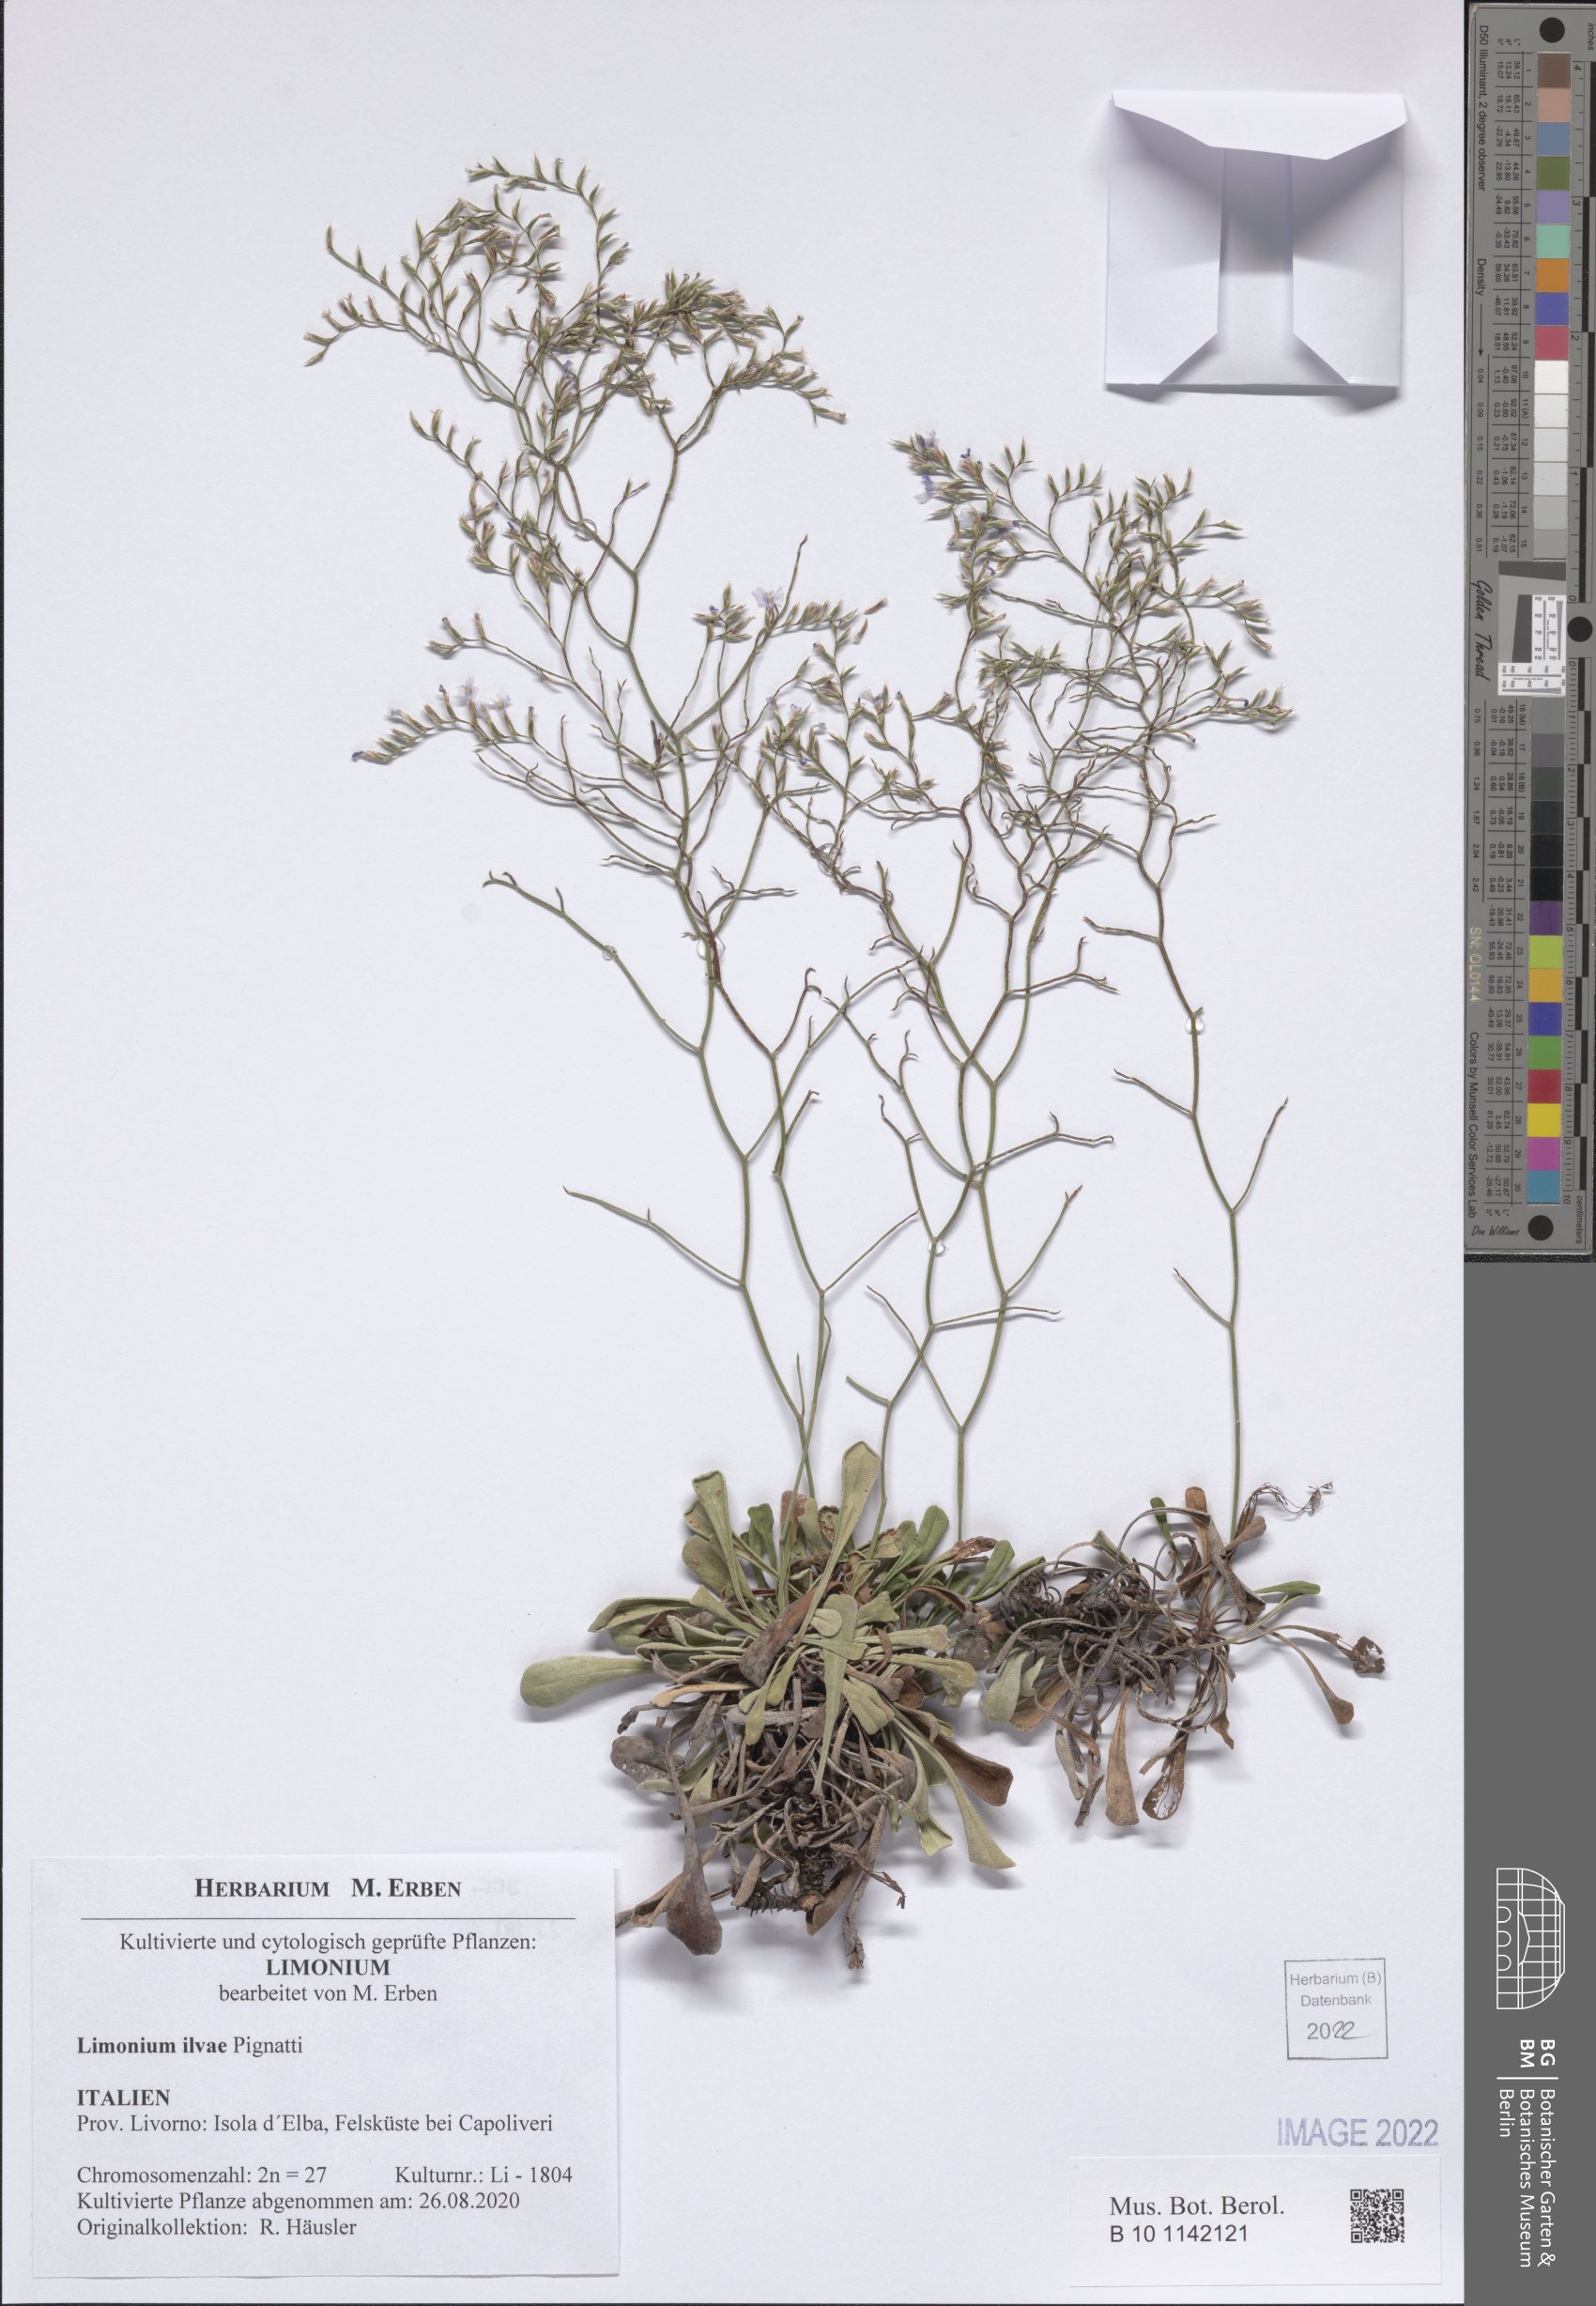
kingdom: Plantae
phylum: Tracheophyta
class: Magnoliopsida
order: Caryophyllales
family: Plumbaginaceae
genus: Limonium
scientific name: Limonium ilvae
